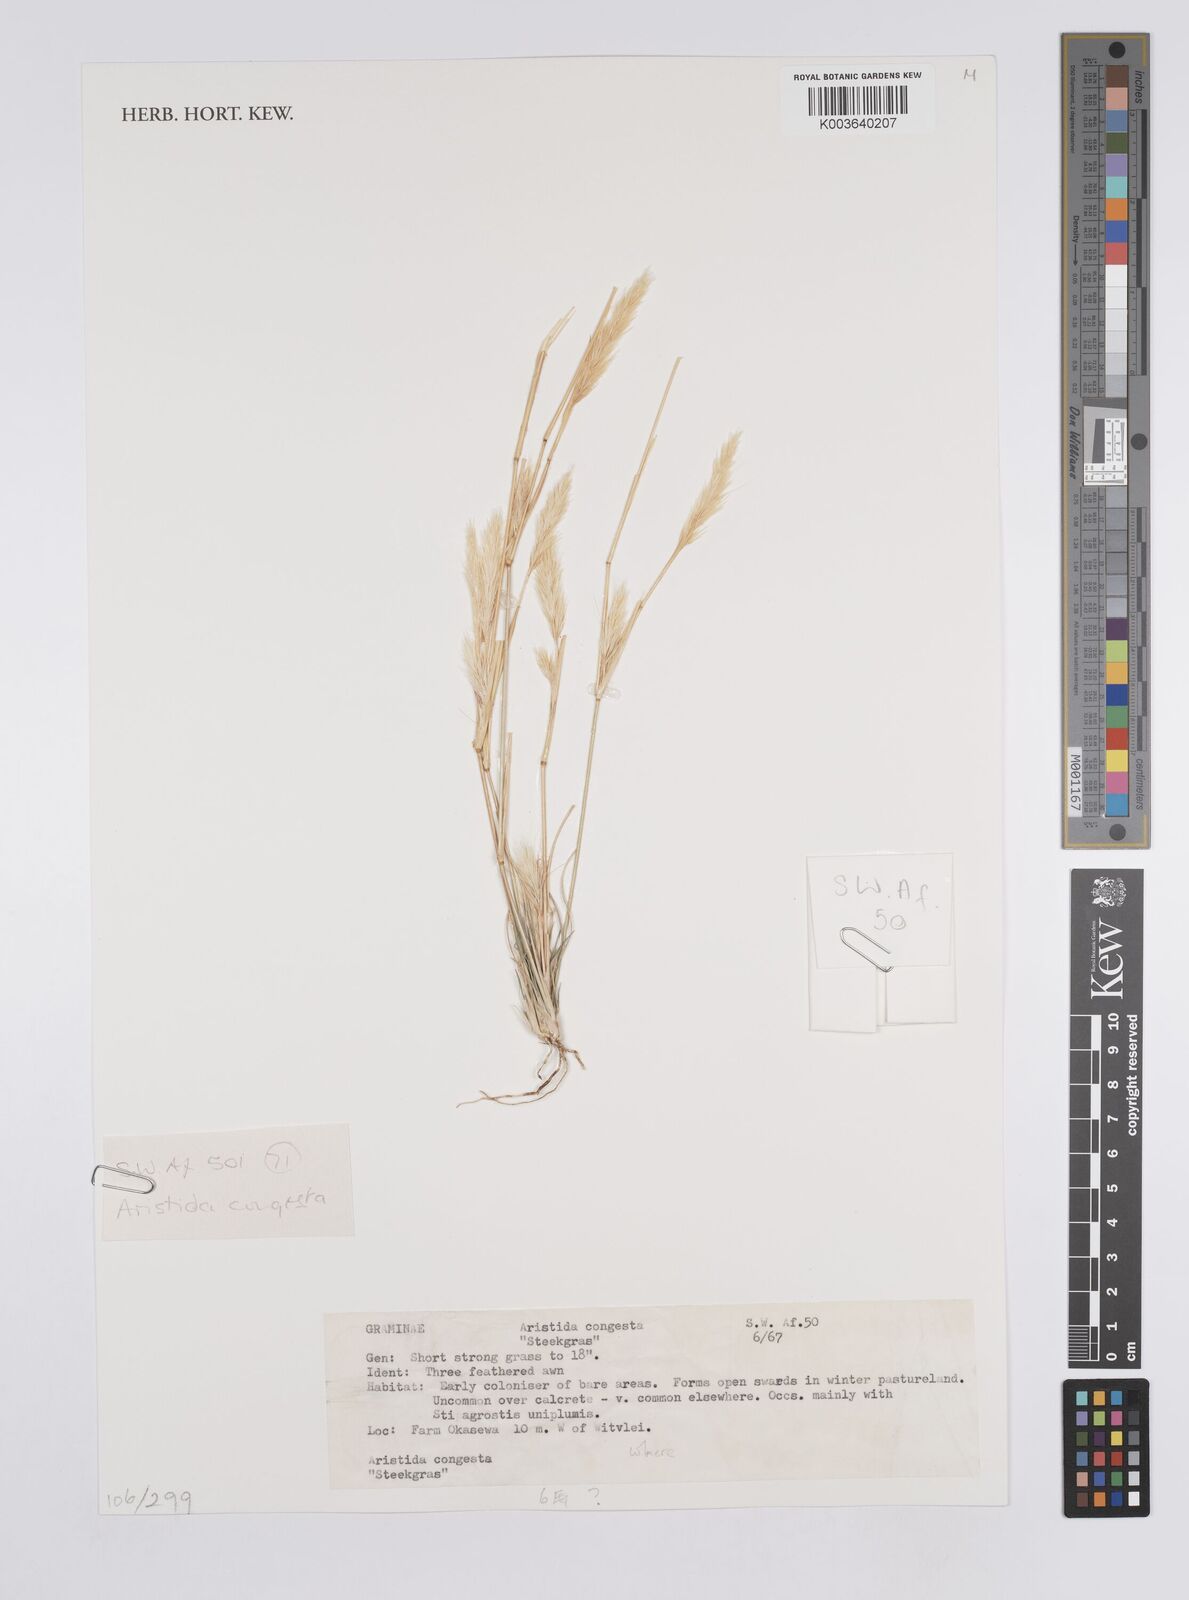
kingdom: Plantae
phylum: Tracheophyta
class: Liliopsida
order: Poales
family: Poaceae
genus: Aristida
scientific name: Aristida congesta
